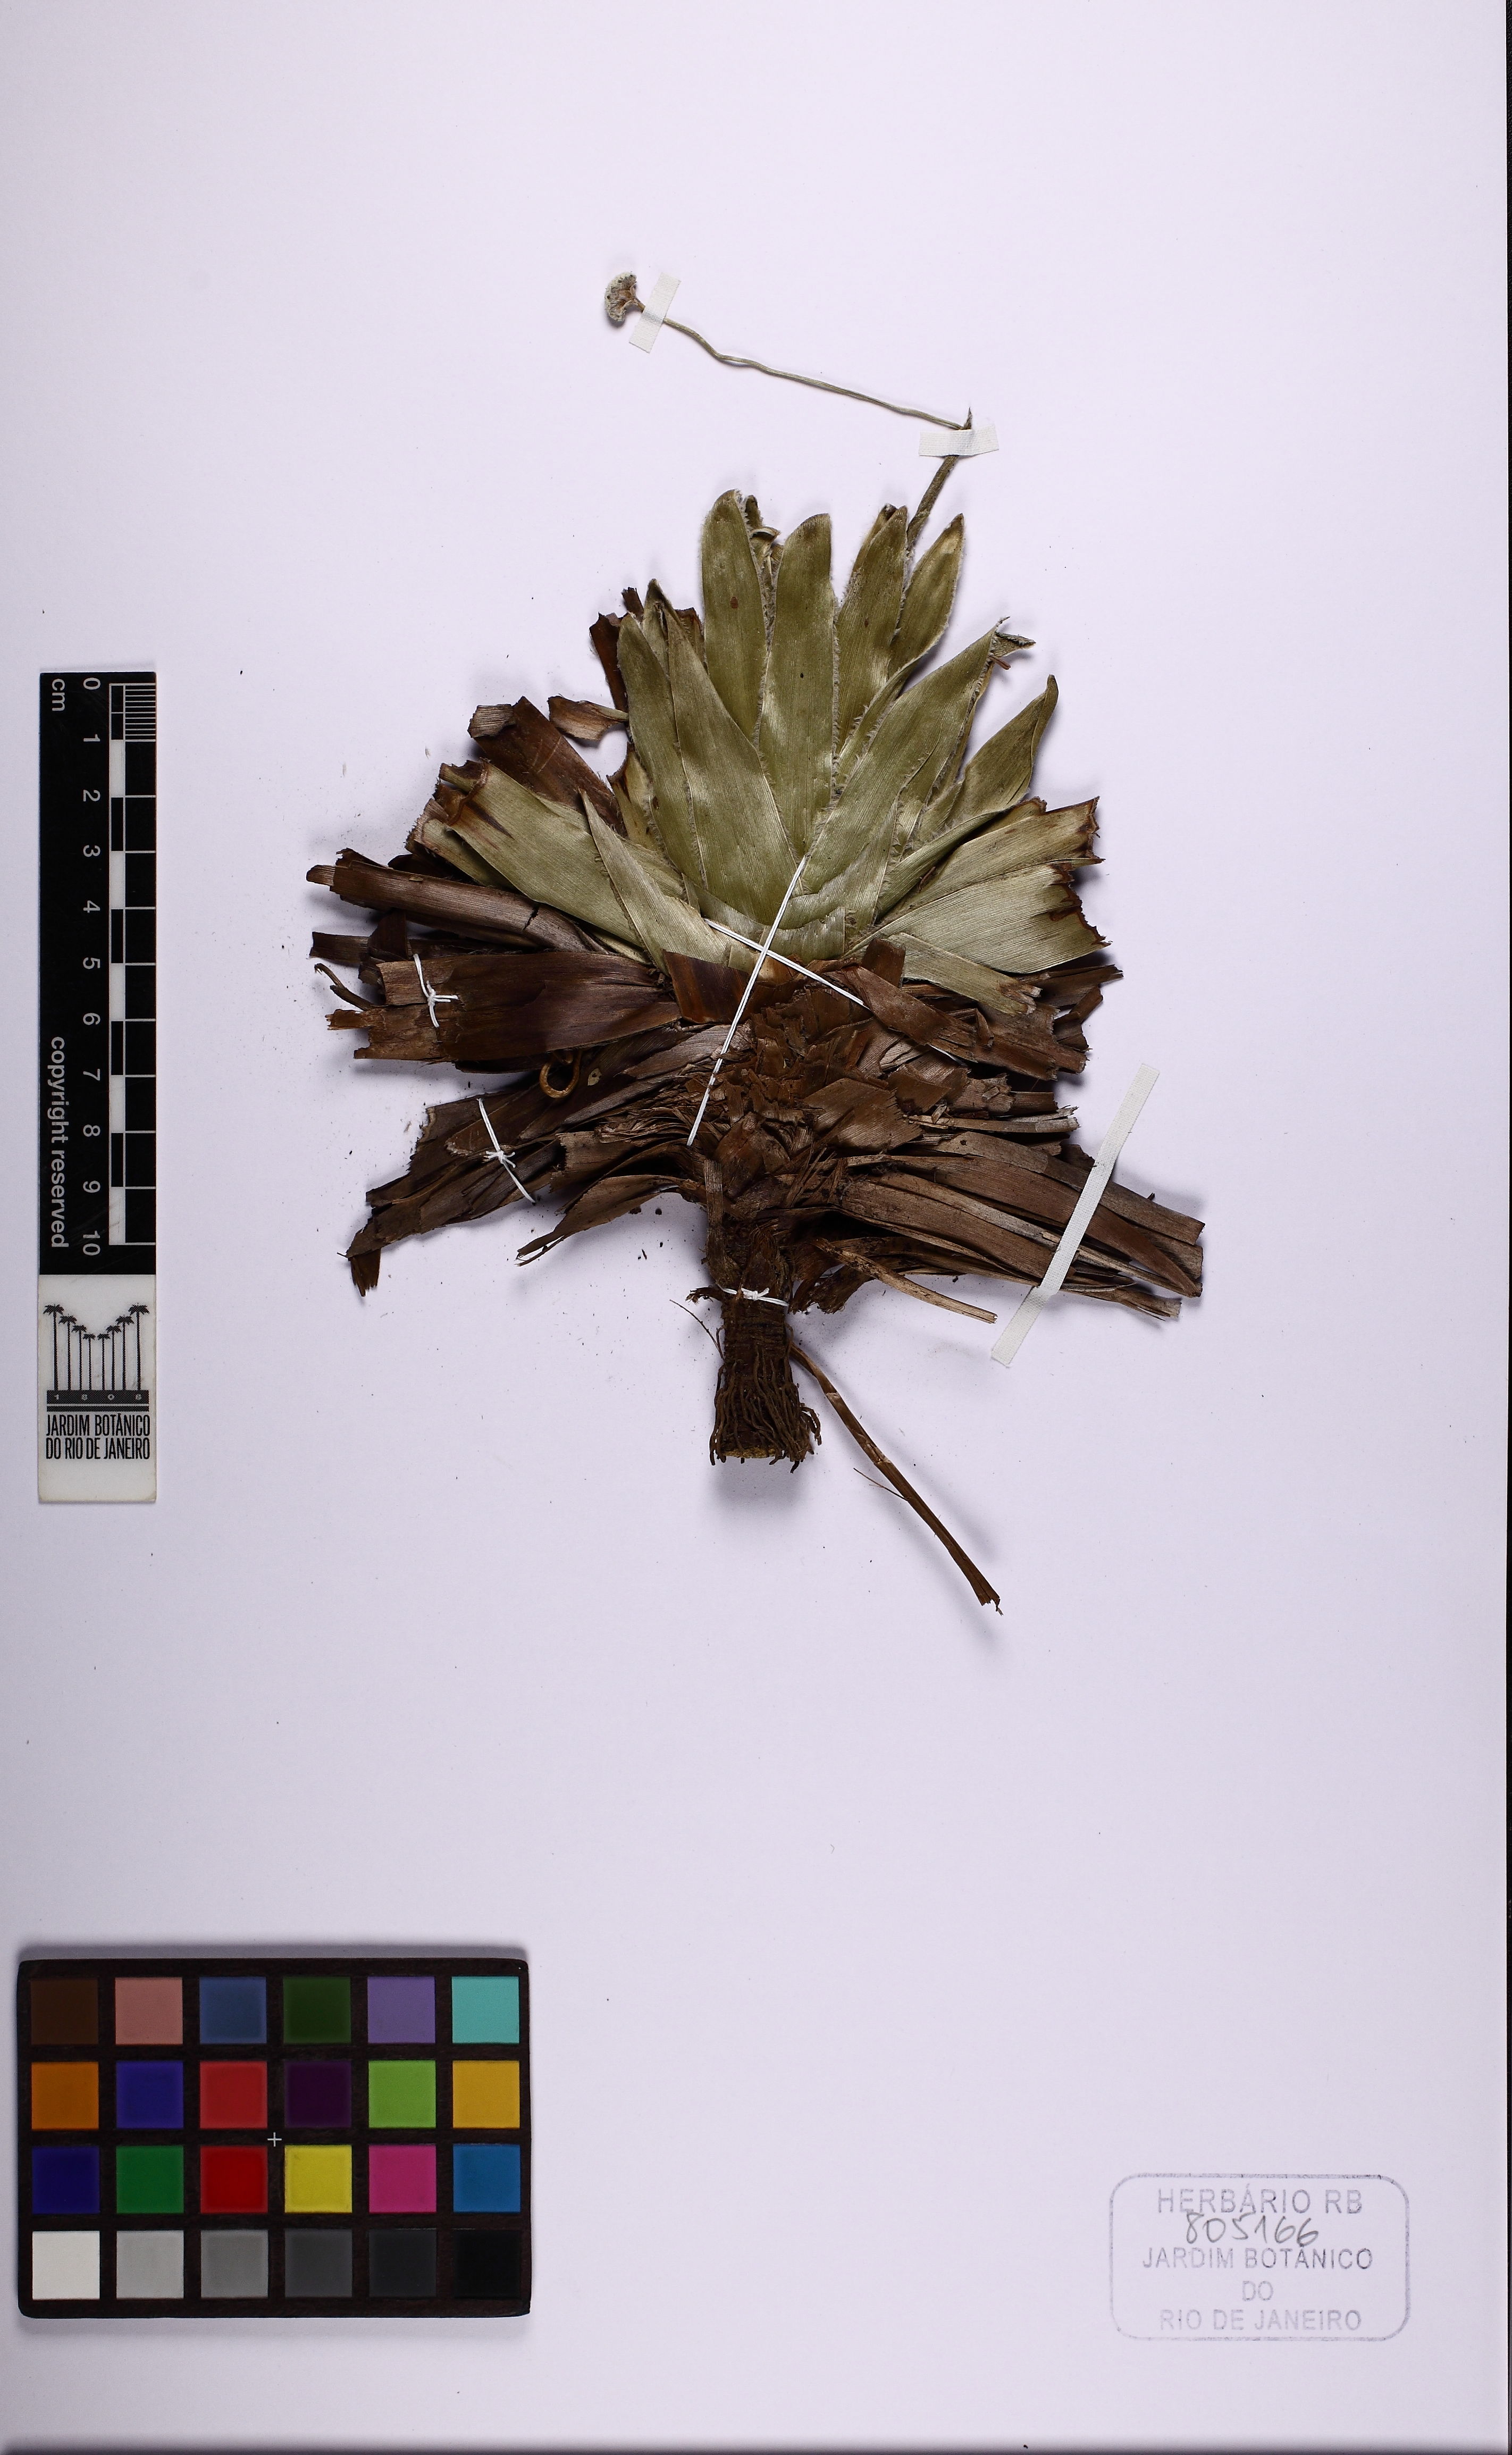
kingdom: Plantae
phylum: Tracheophyta
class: Liliopsida
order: Poales
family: Eriocaulaceae
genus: Paepalanthus
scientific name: Paepalanthus
